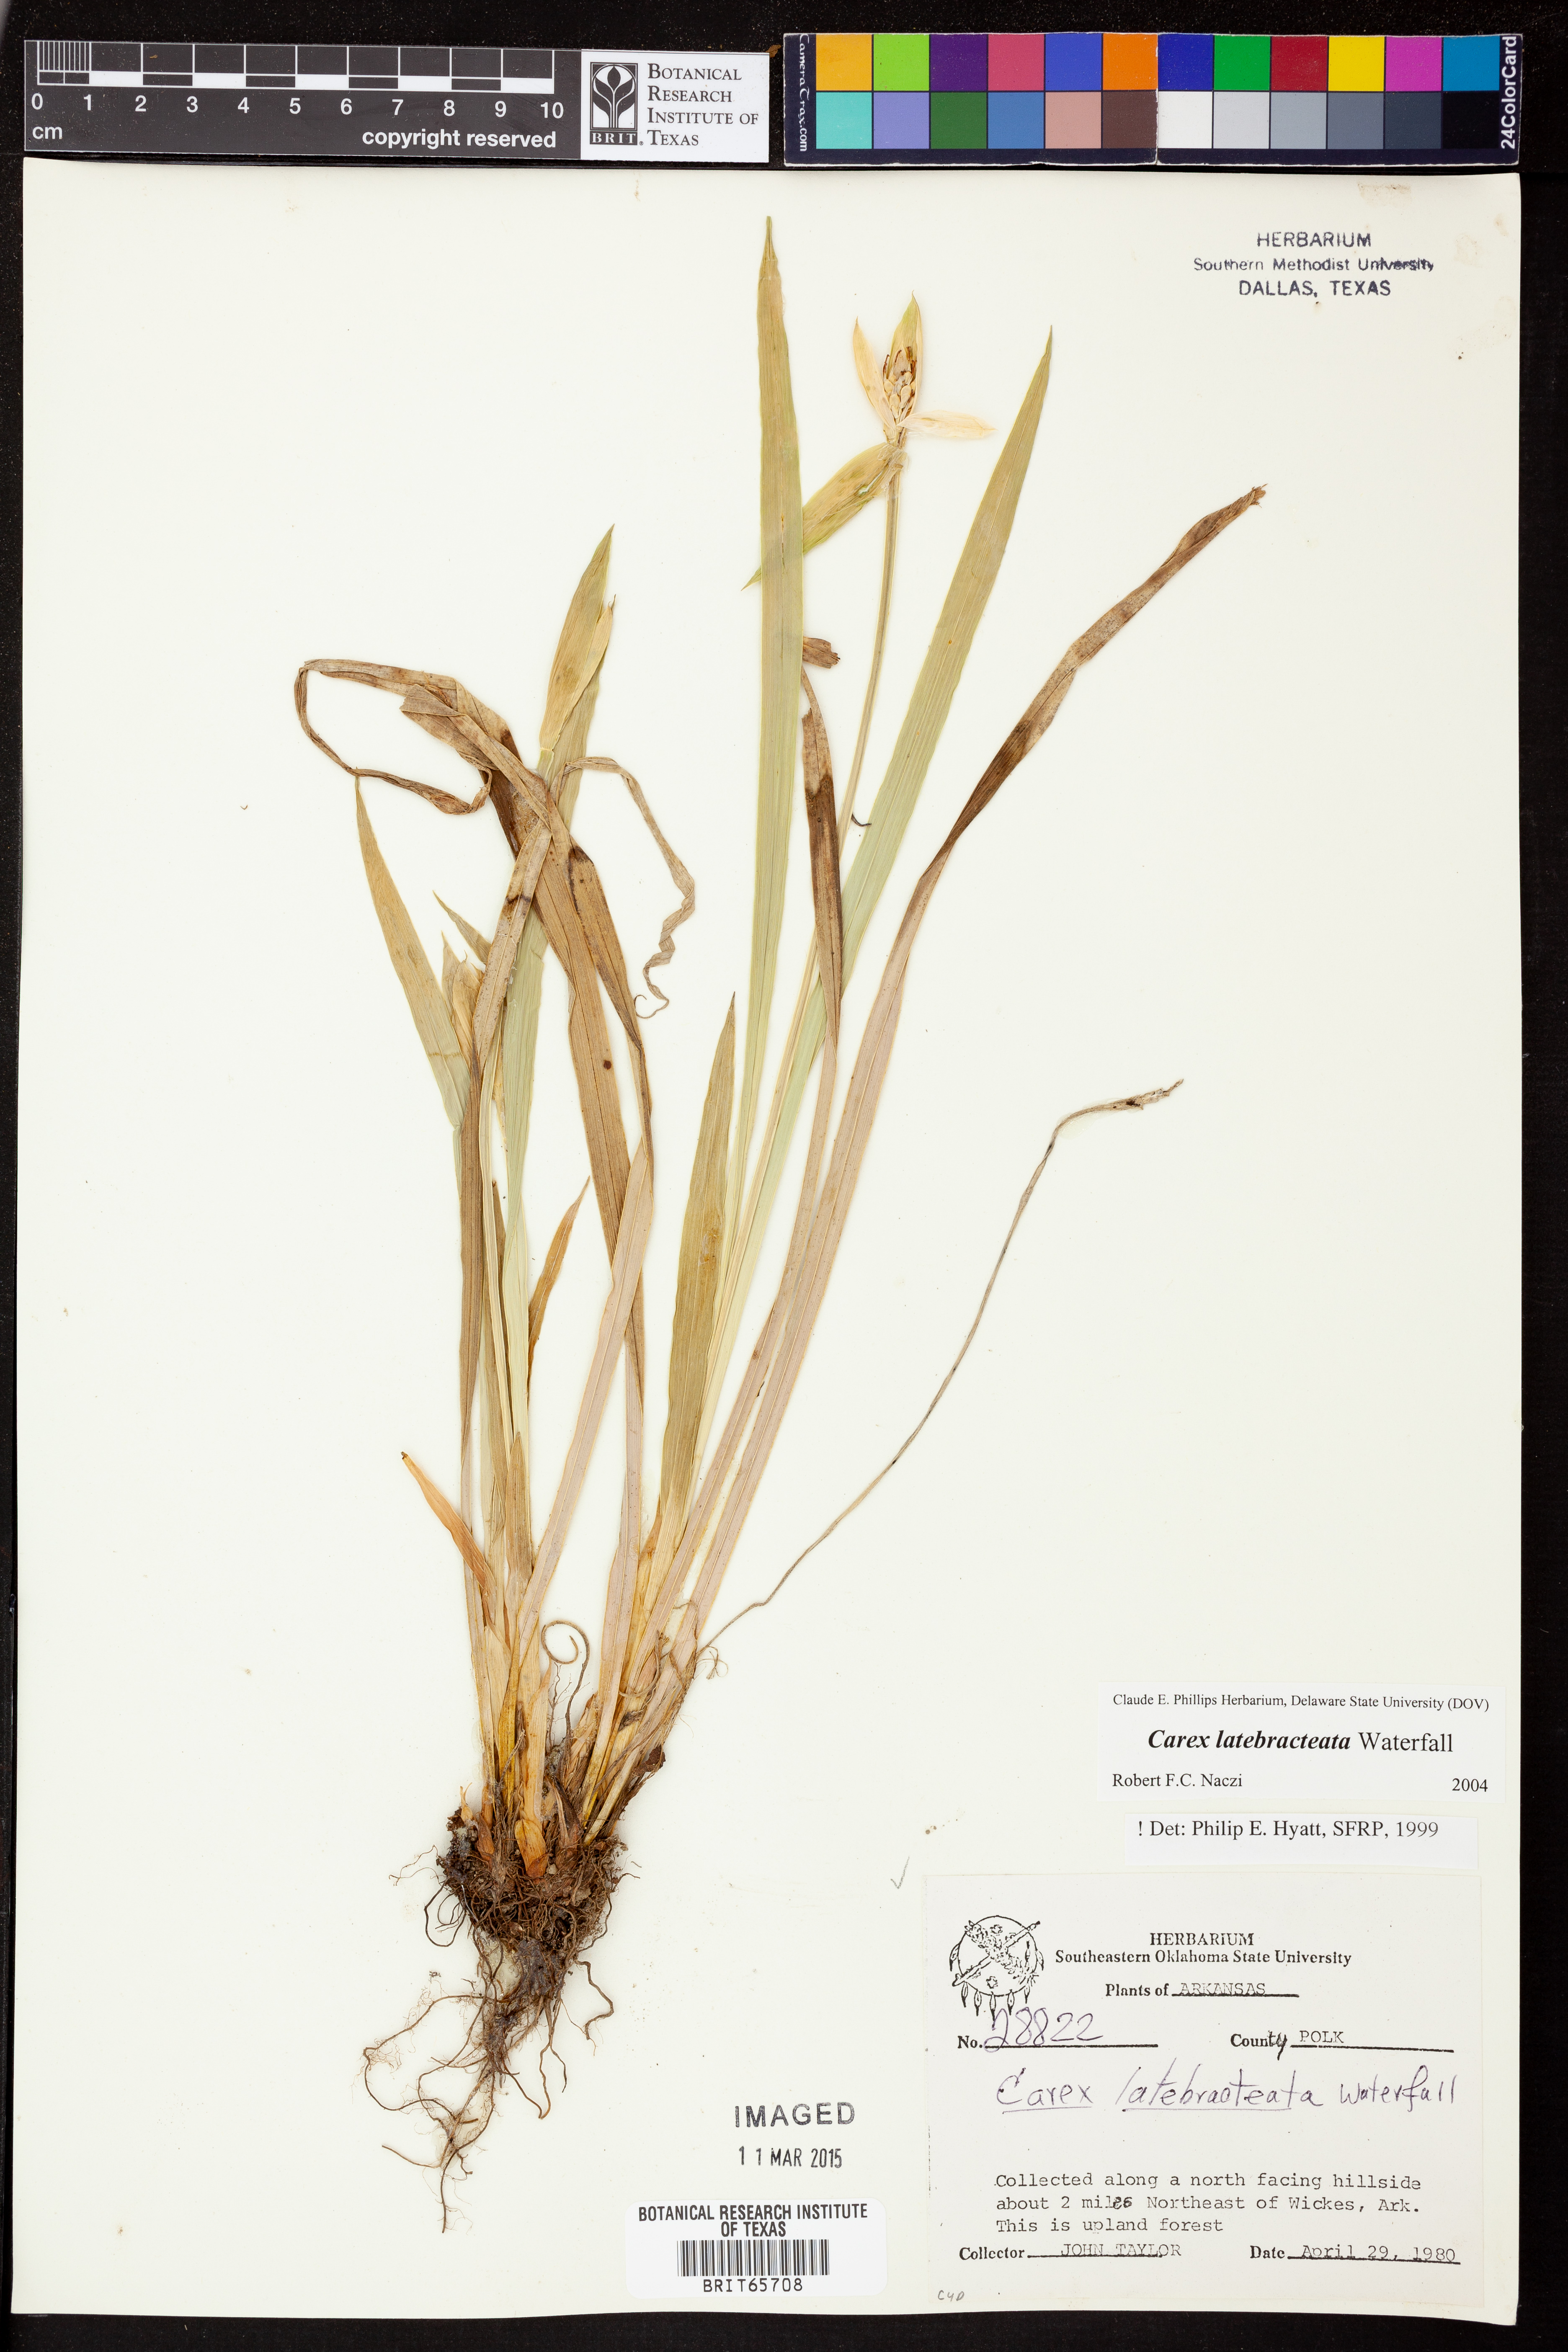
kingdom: Plantae
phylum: Tracheophyta
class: Liliopsida
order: Poales
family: Cyperaceae
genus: Carex
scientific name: Carex latebracteata
